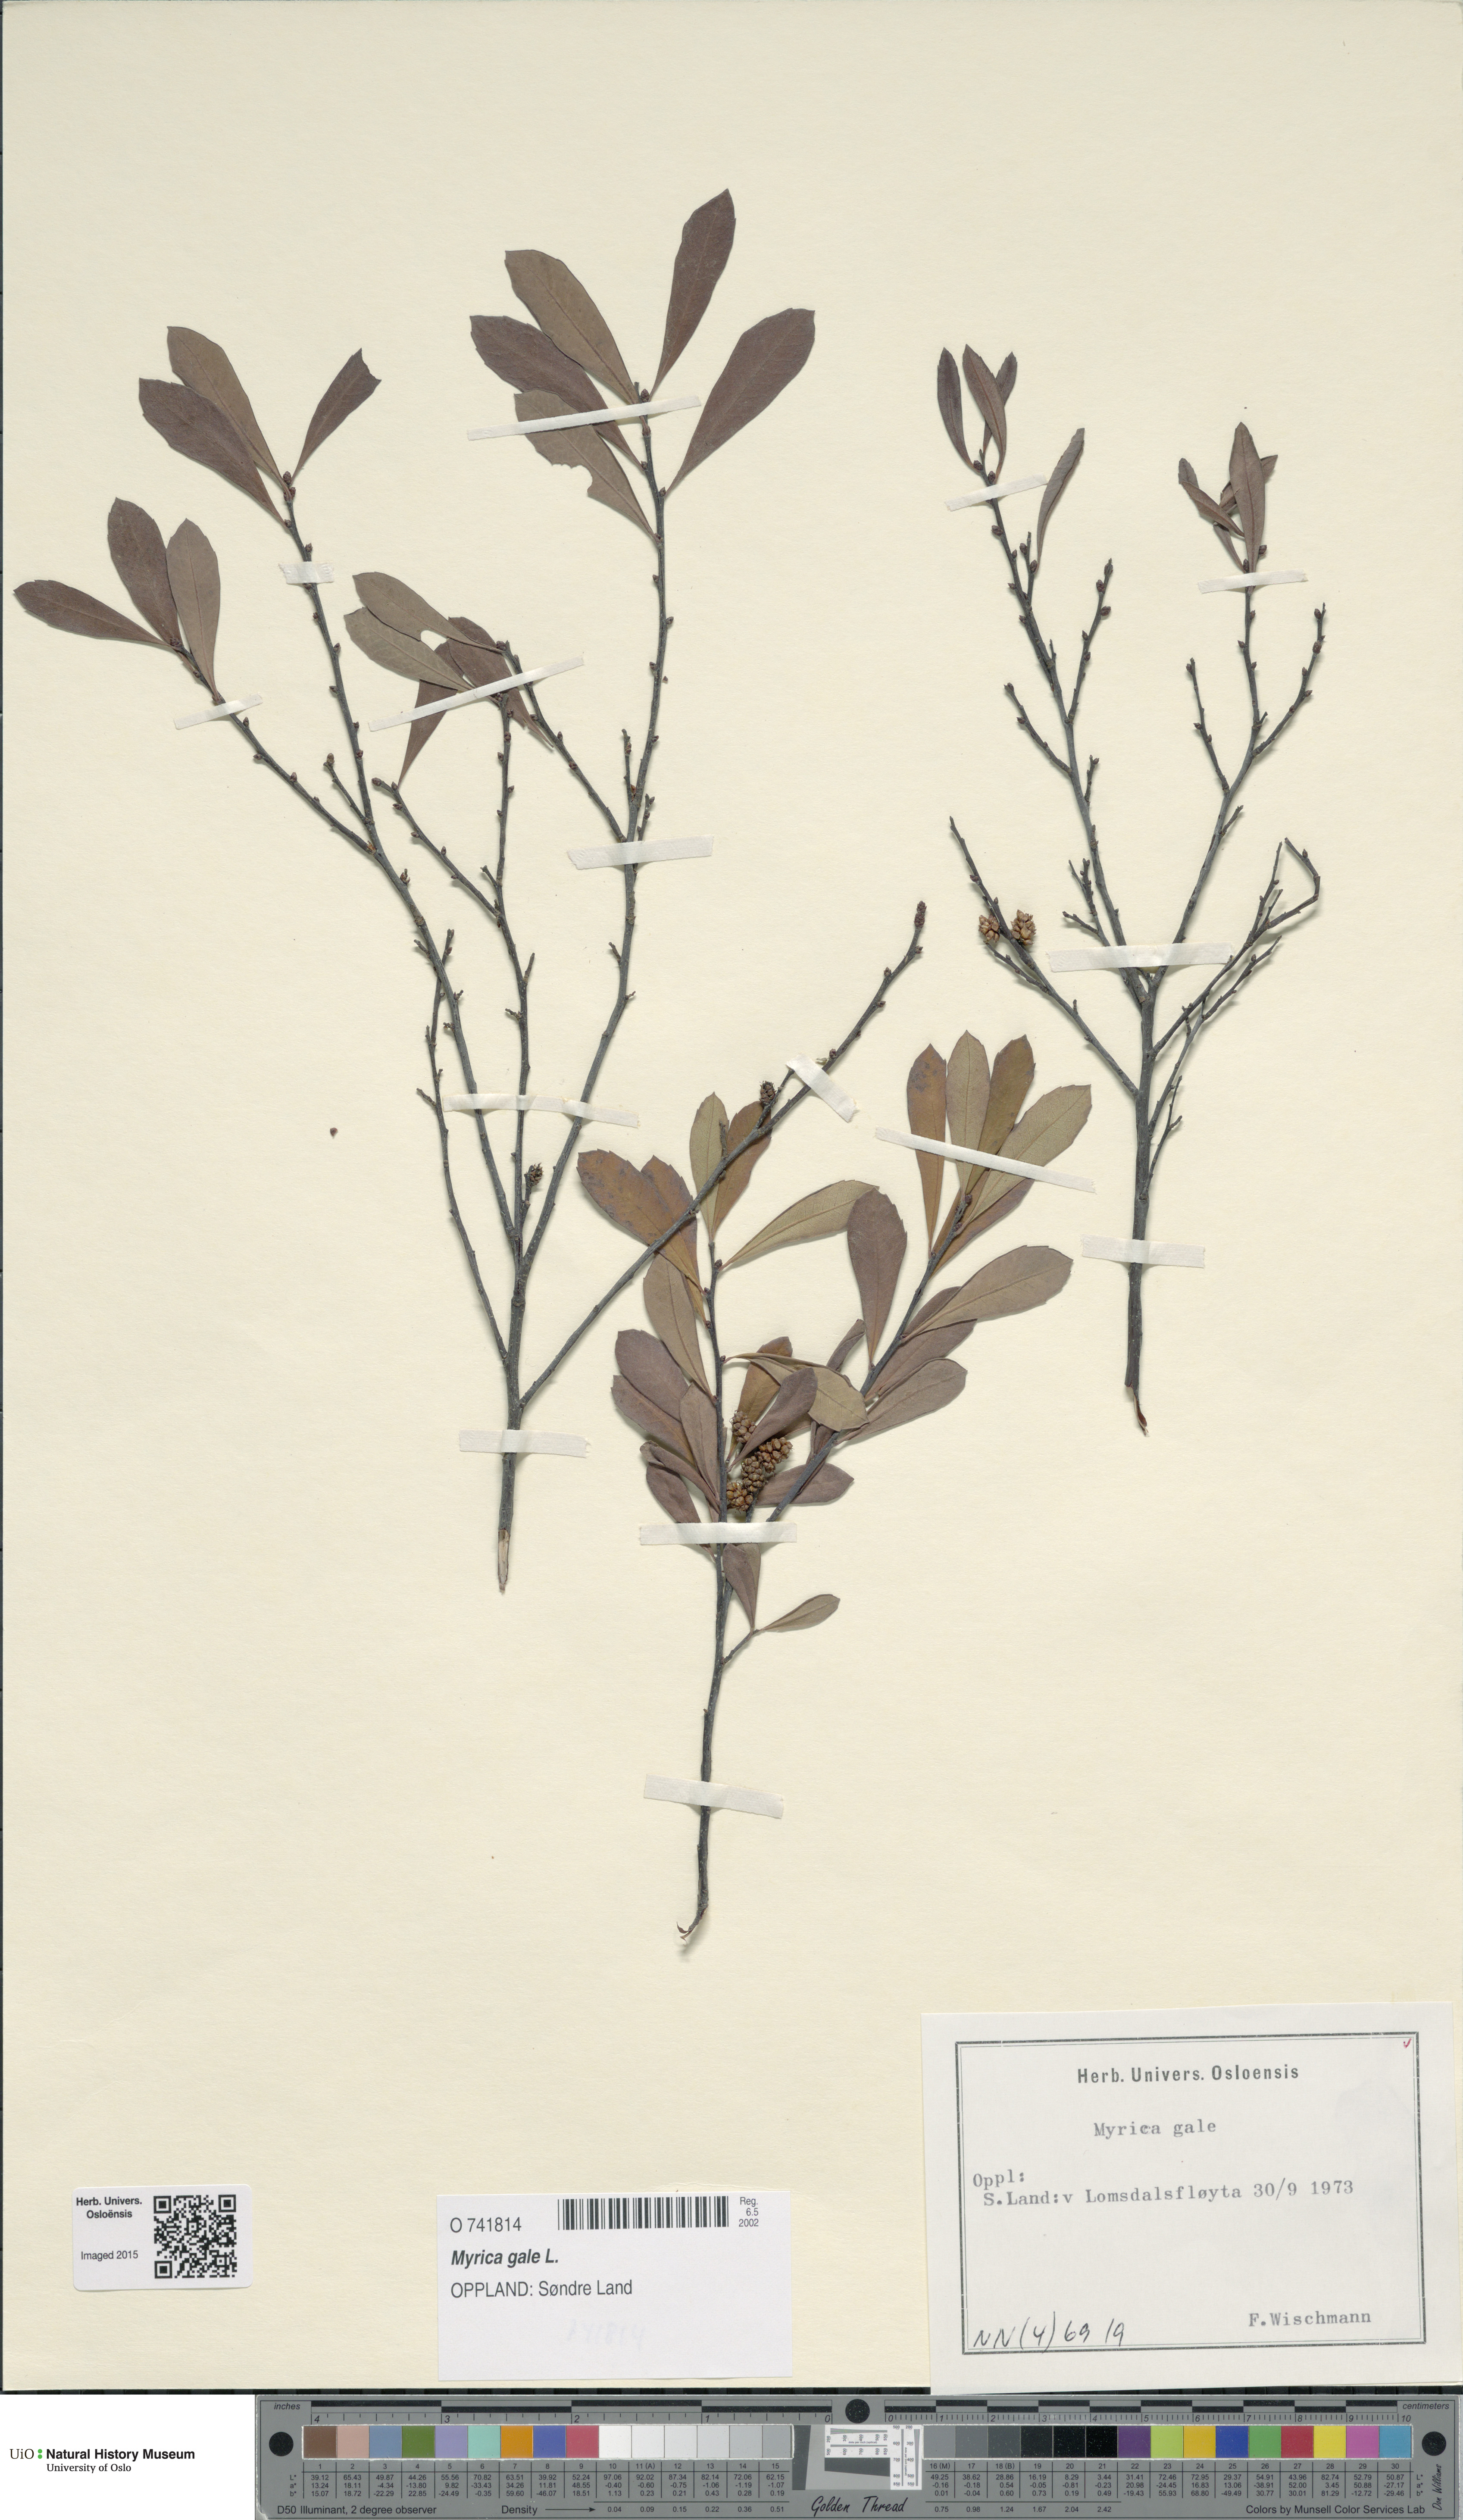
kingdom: Plantae
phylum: Tracheophyta
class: Magnoliopsida
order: Fagales
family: Myricaceae
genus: Myrica
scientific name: Myrica gale
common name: Sweet gale
